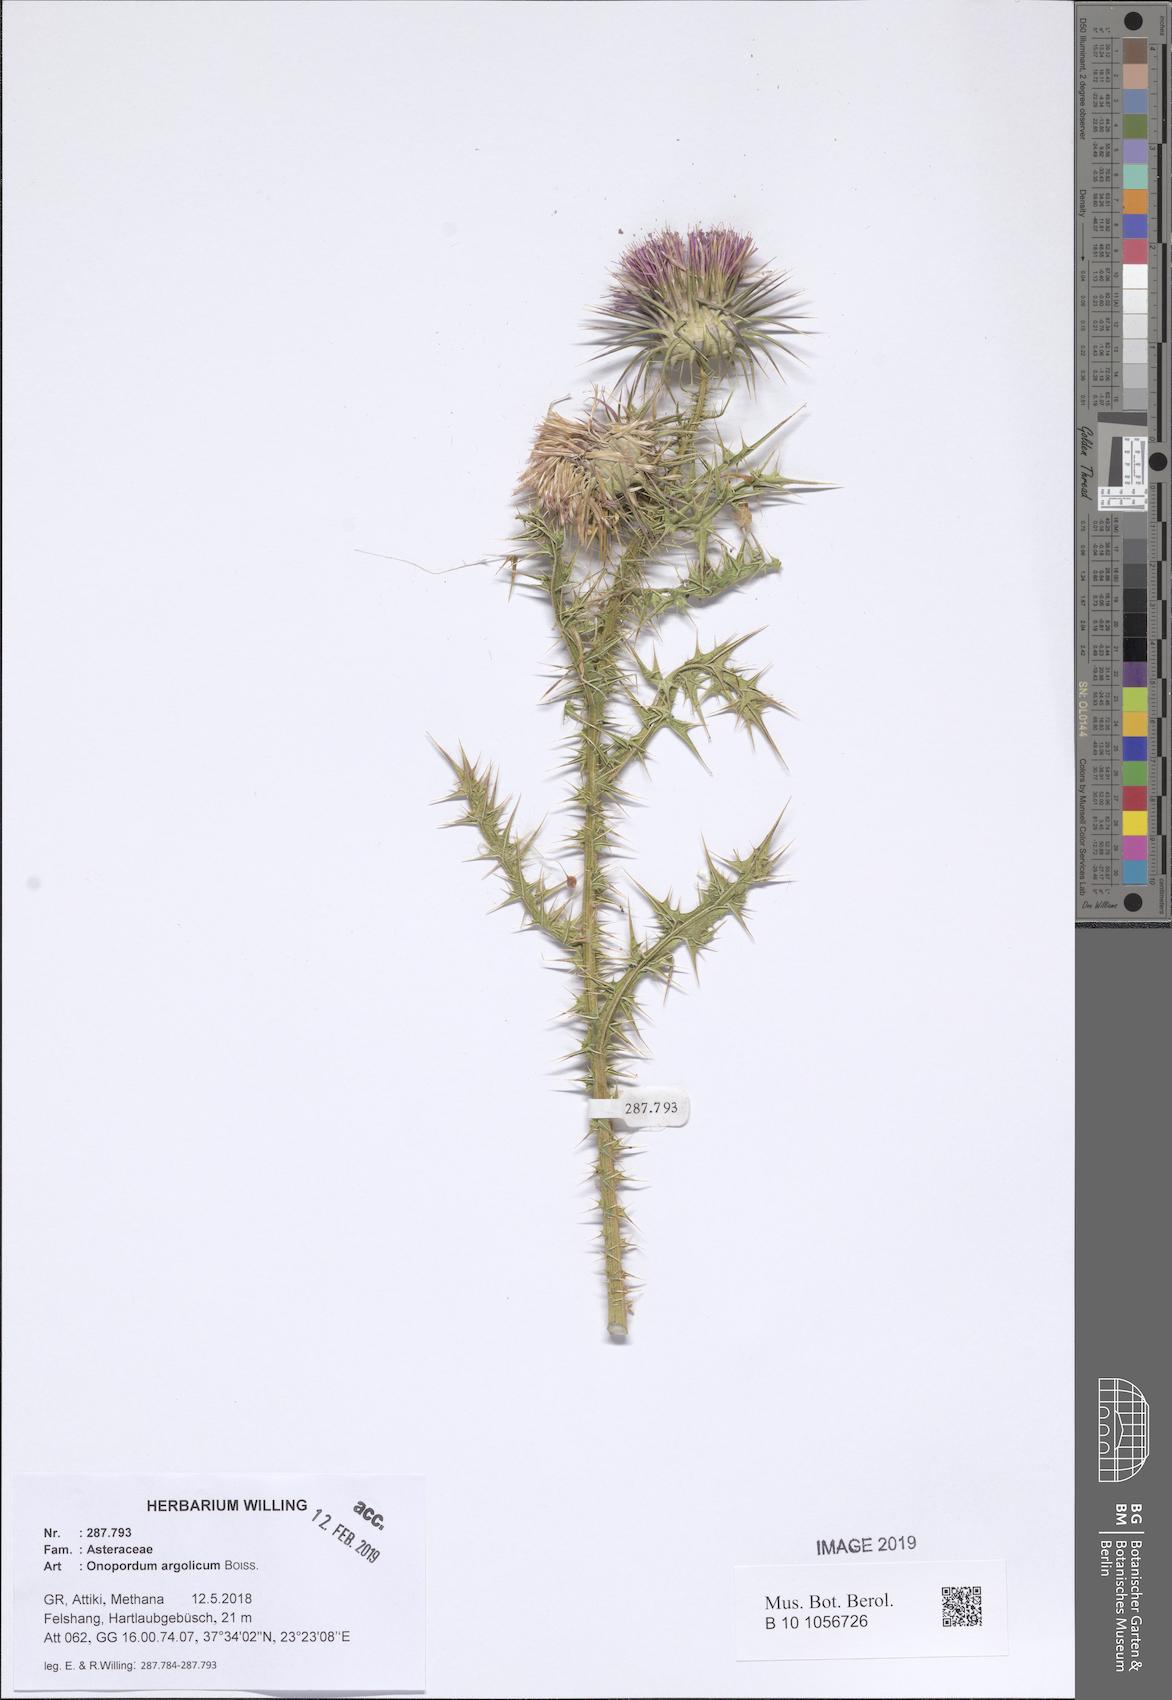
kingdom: Plantae
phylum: Tracheophyta
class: Magnoliopsida
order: Asterales
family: Asteraceae
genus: Onopordum
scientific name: Onopordum tauricum
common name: Bull cottonthistle
